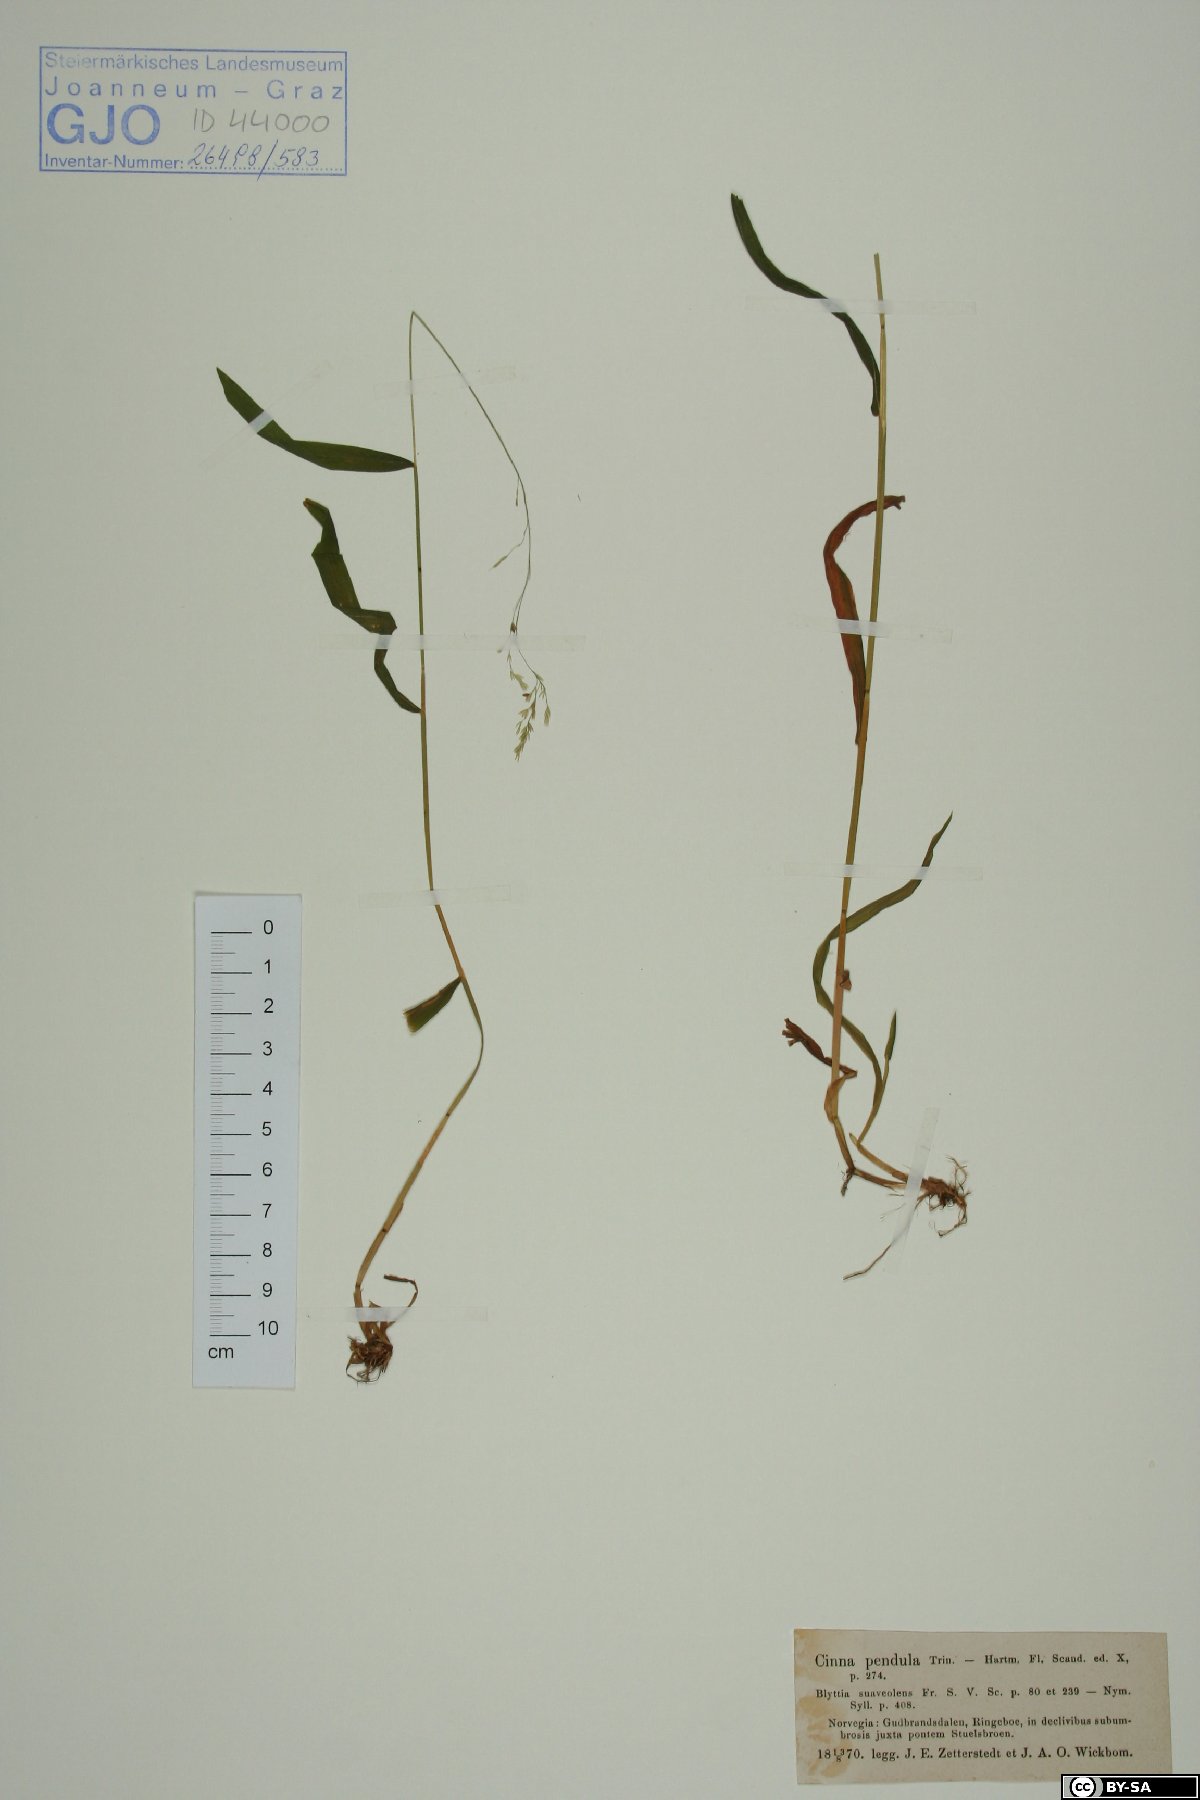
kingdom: Plantae
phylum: Tracheophyta
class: Liliopsida
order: Poales
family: Poaceae
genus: Cinna
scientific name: Cinna latifolia
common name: Drooping woodreed
